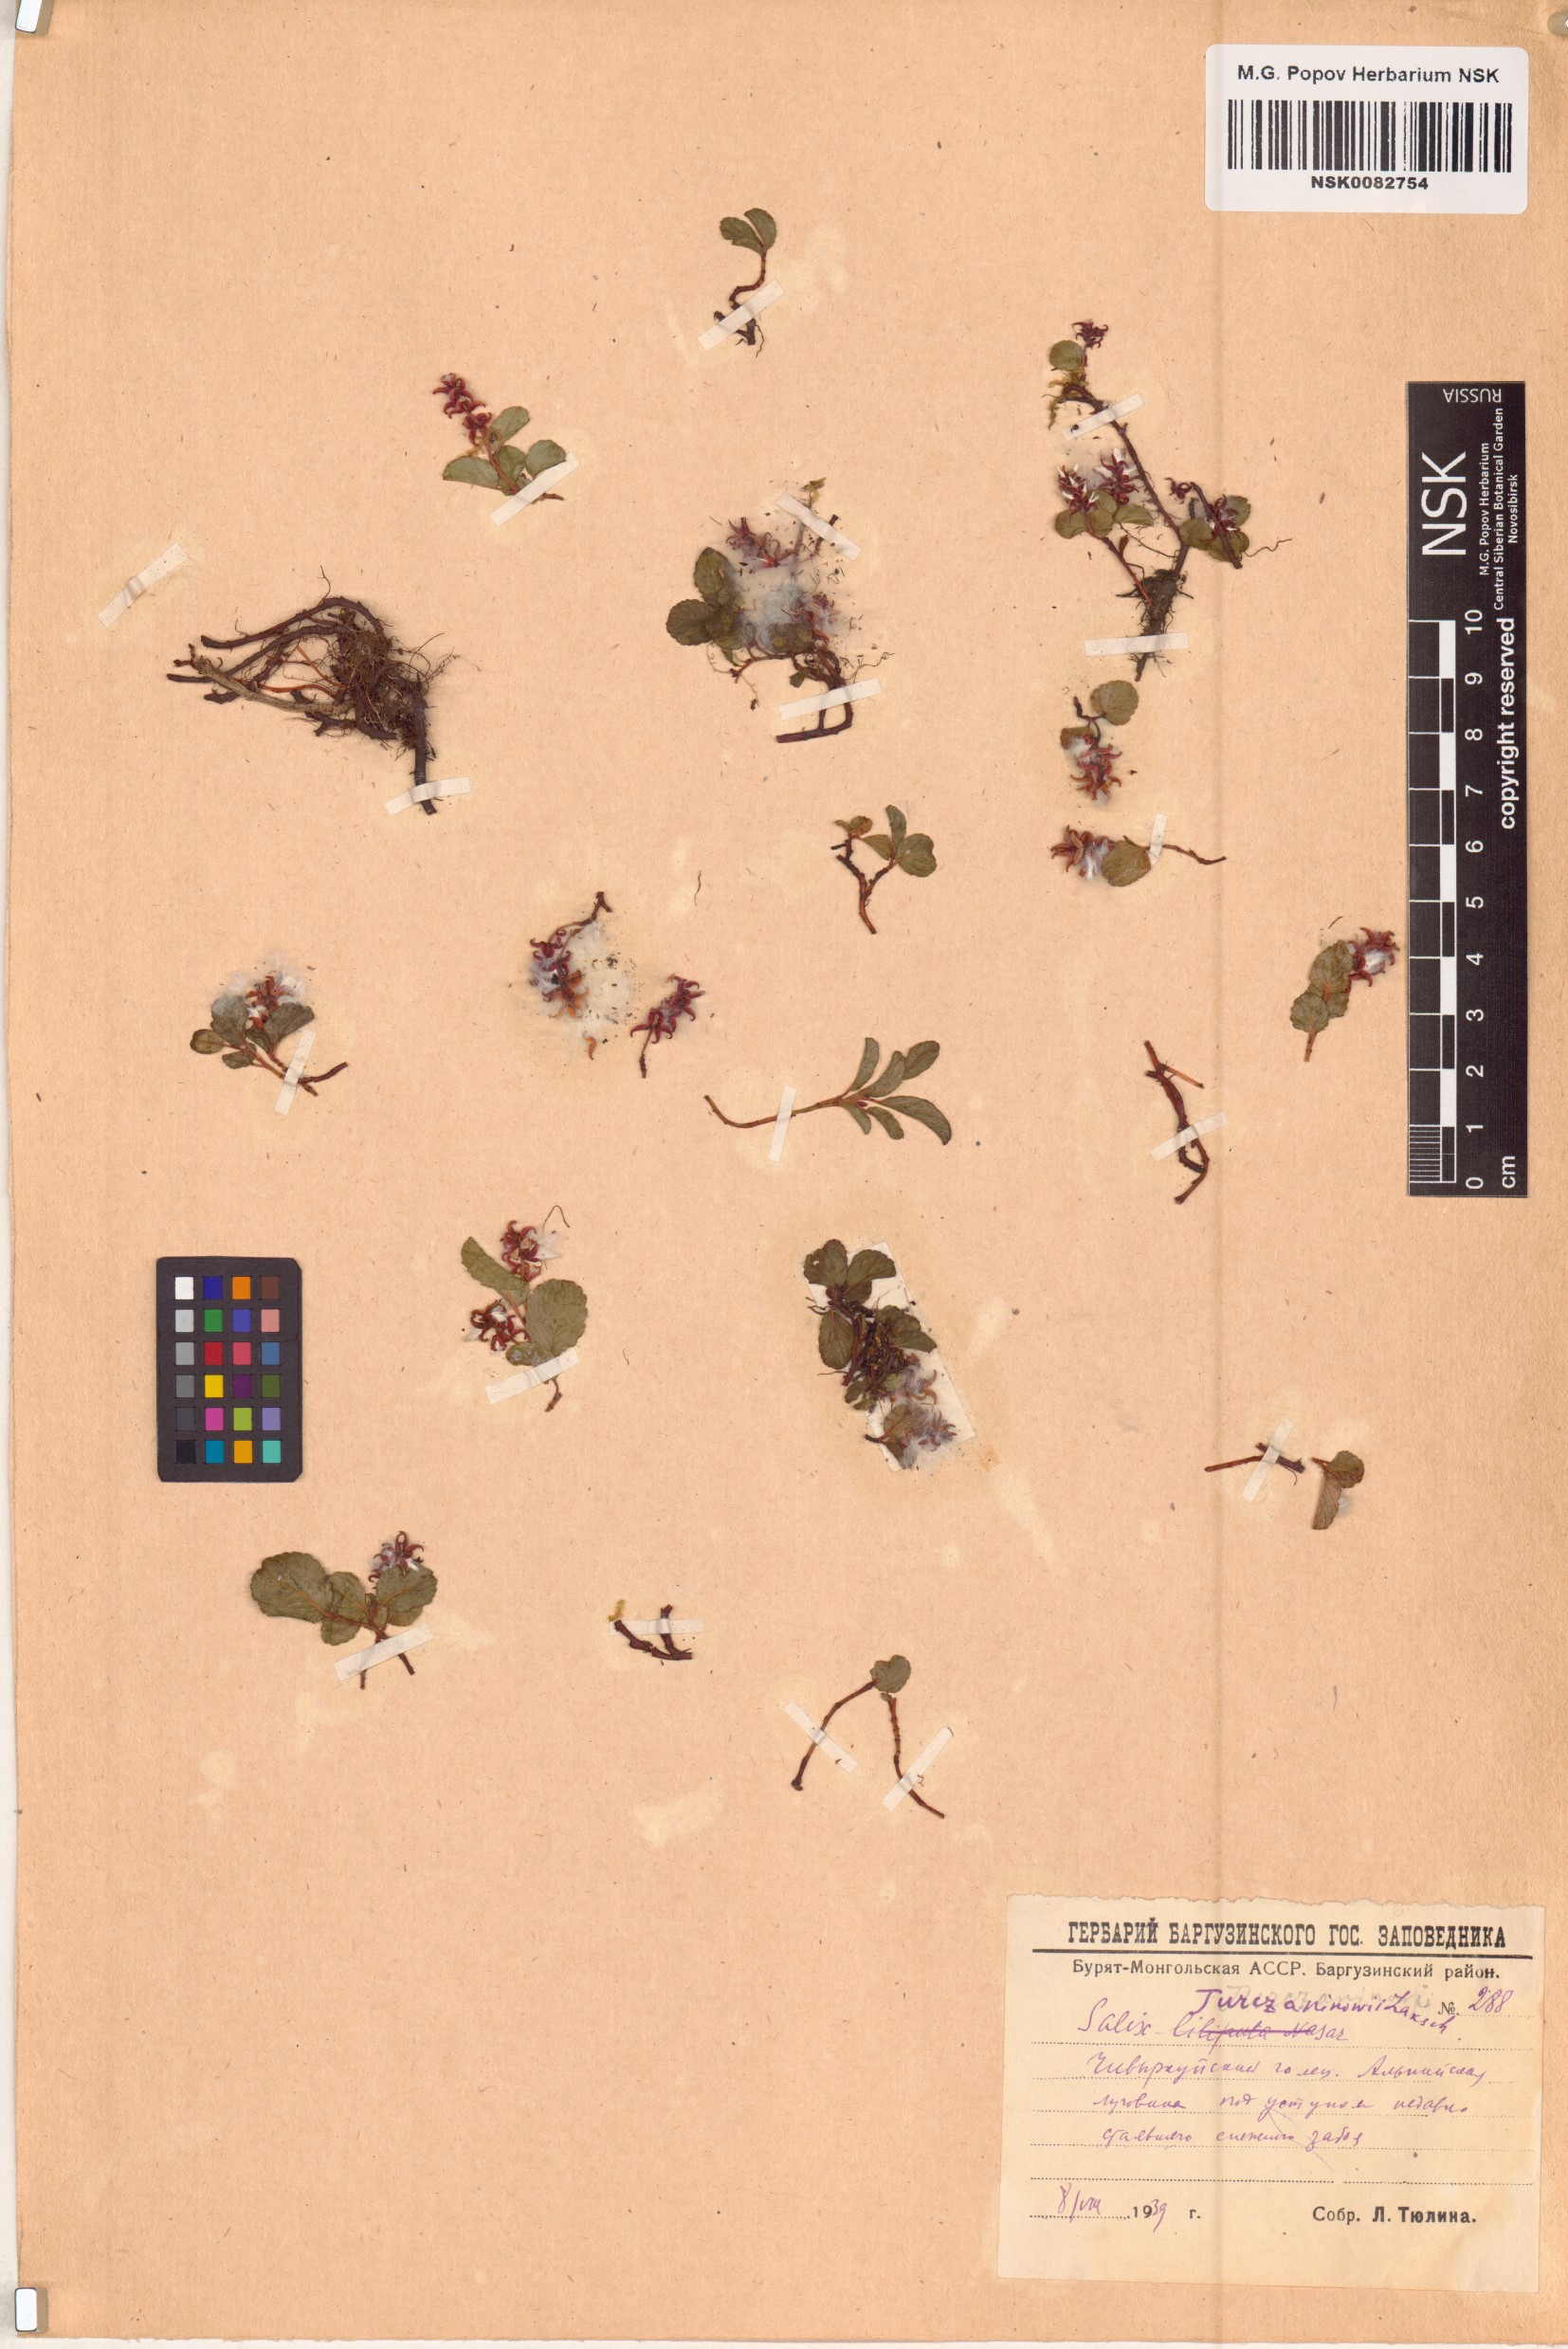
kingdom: Plantae
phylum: Tracheophyta
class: Magnoliopsida
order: Malpighiales
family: Salicaceae
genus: Salix
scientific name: Salix turczaninowii
